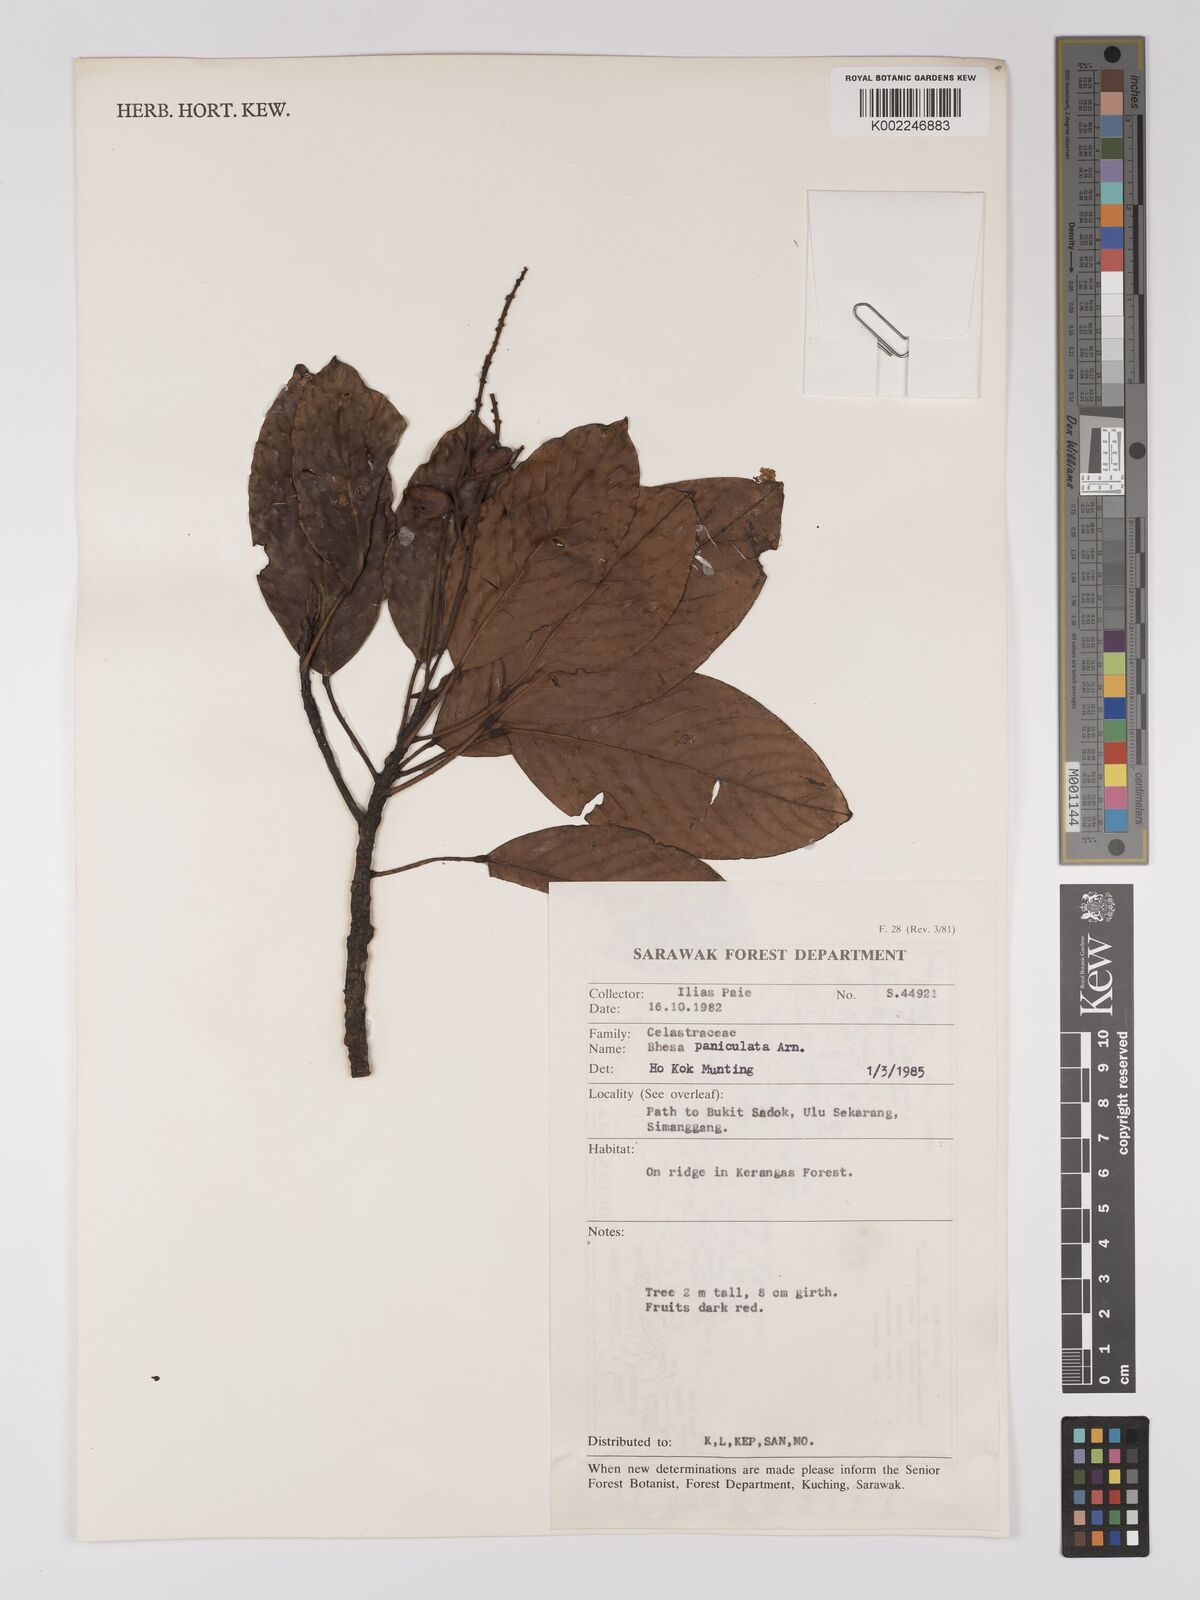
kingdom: Plantae
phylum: Tracheophyta
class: Magnoliopsida
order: Malpighiales
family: Centroplacaceae
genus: Bhesa
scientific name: Bhesa paniculata
